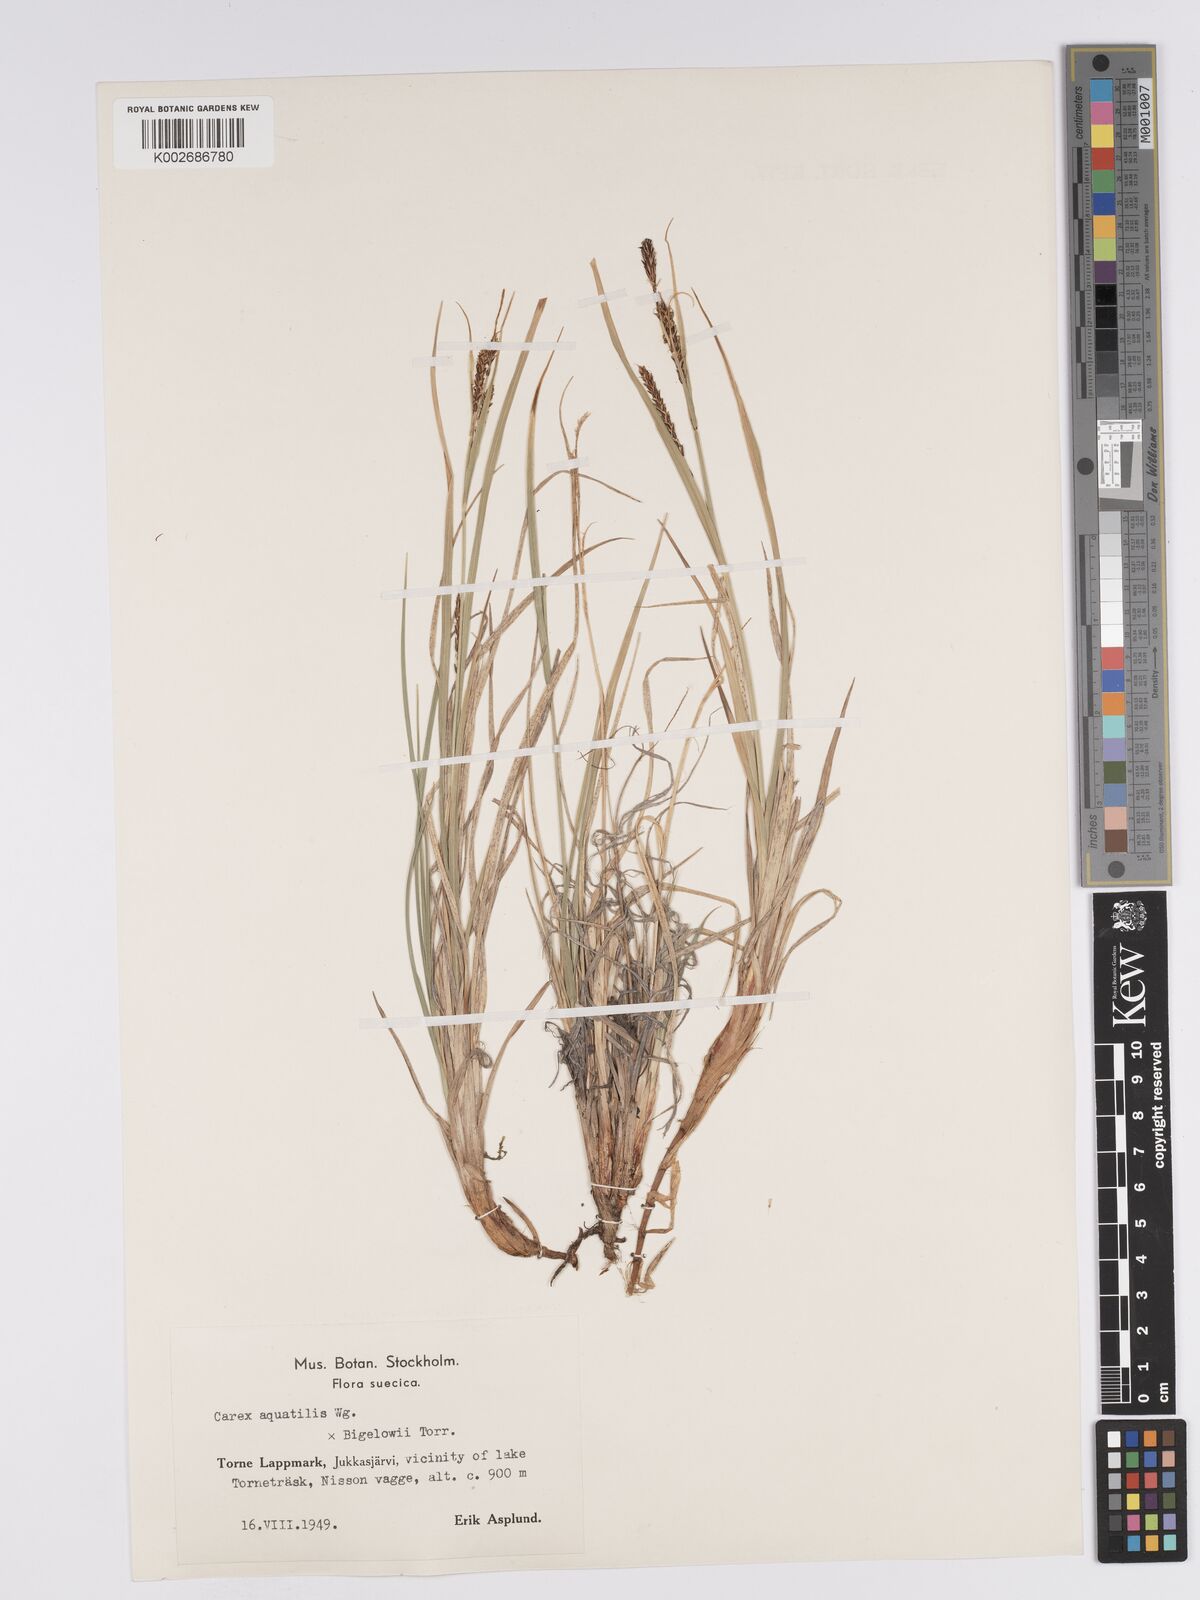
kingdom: Plantae
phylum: Tracheophyta
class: Liliopsida
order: Poales
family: Cyperaceae
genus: Carex
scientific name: Carex aquatilis
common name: Water sedge
